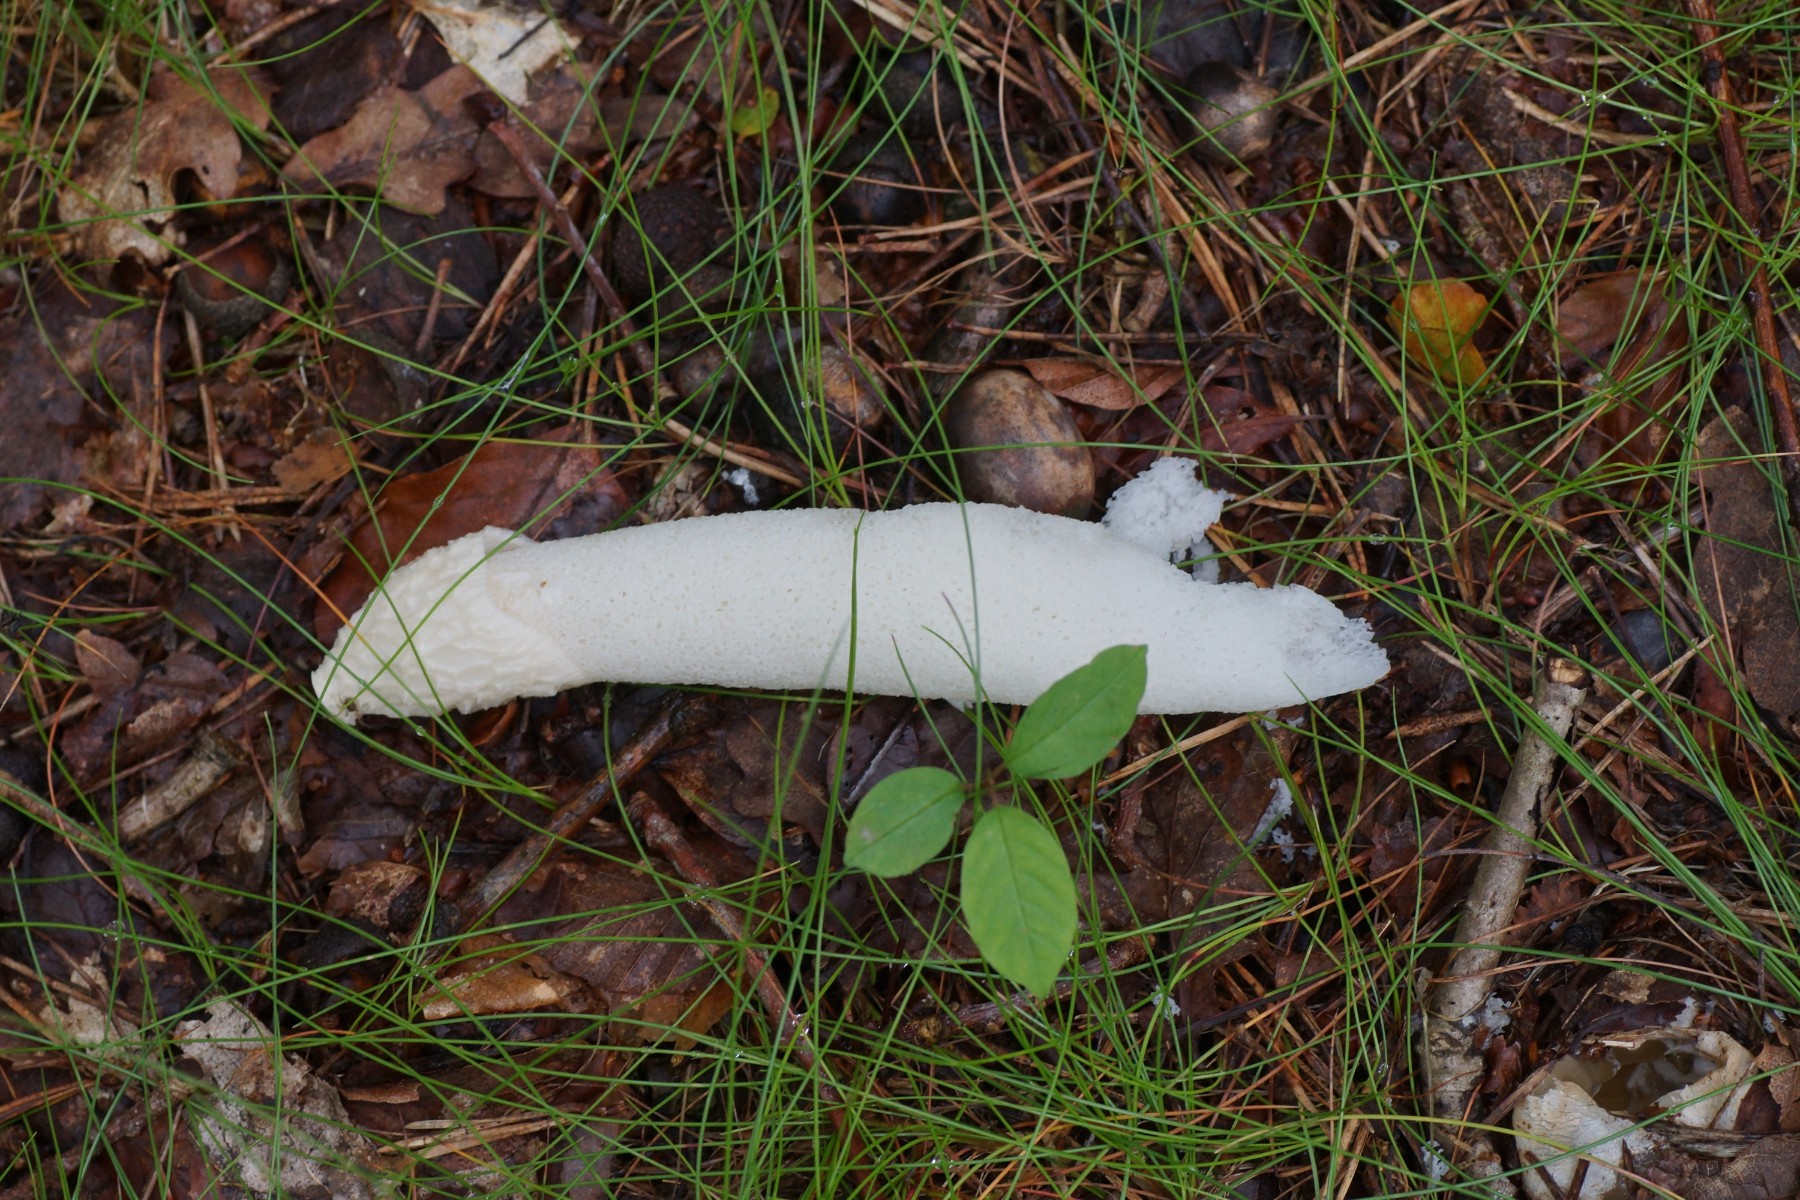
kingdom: Fungi
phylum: Basidiomycota
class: Agaricomycetes
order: Phallales
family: Phallaceae
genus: Phallus
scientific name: Phallus impudicus
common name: almindelig stinksvamp
